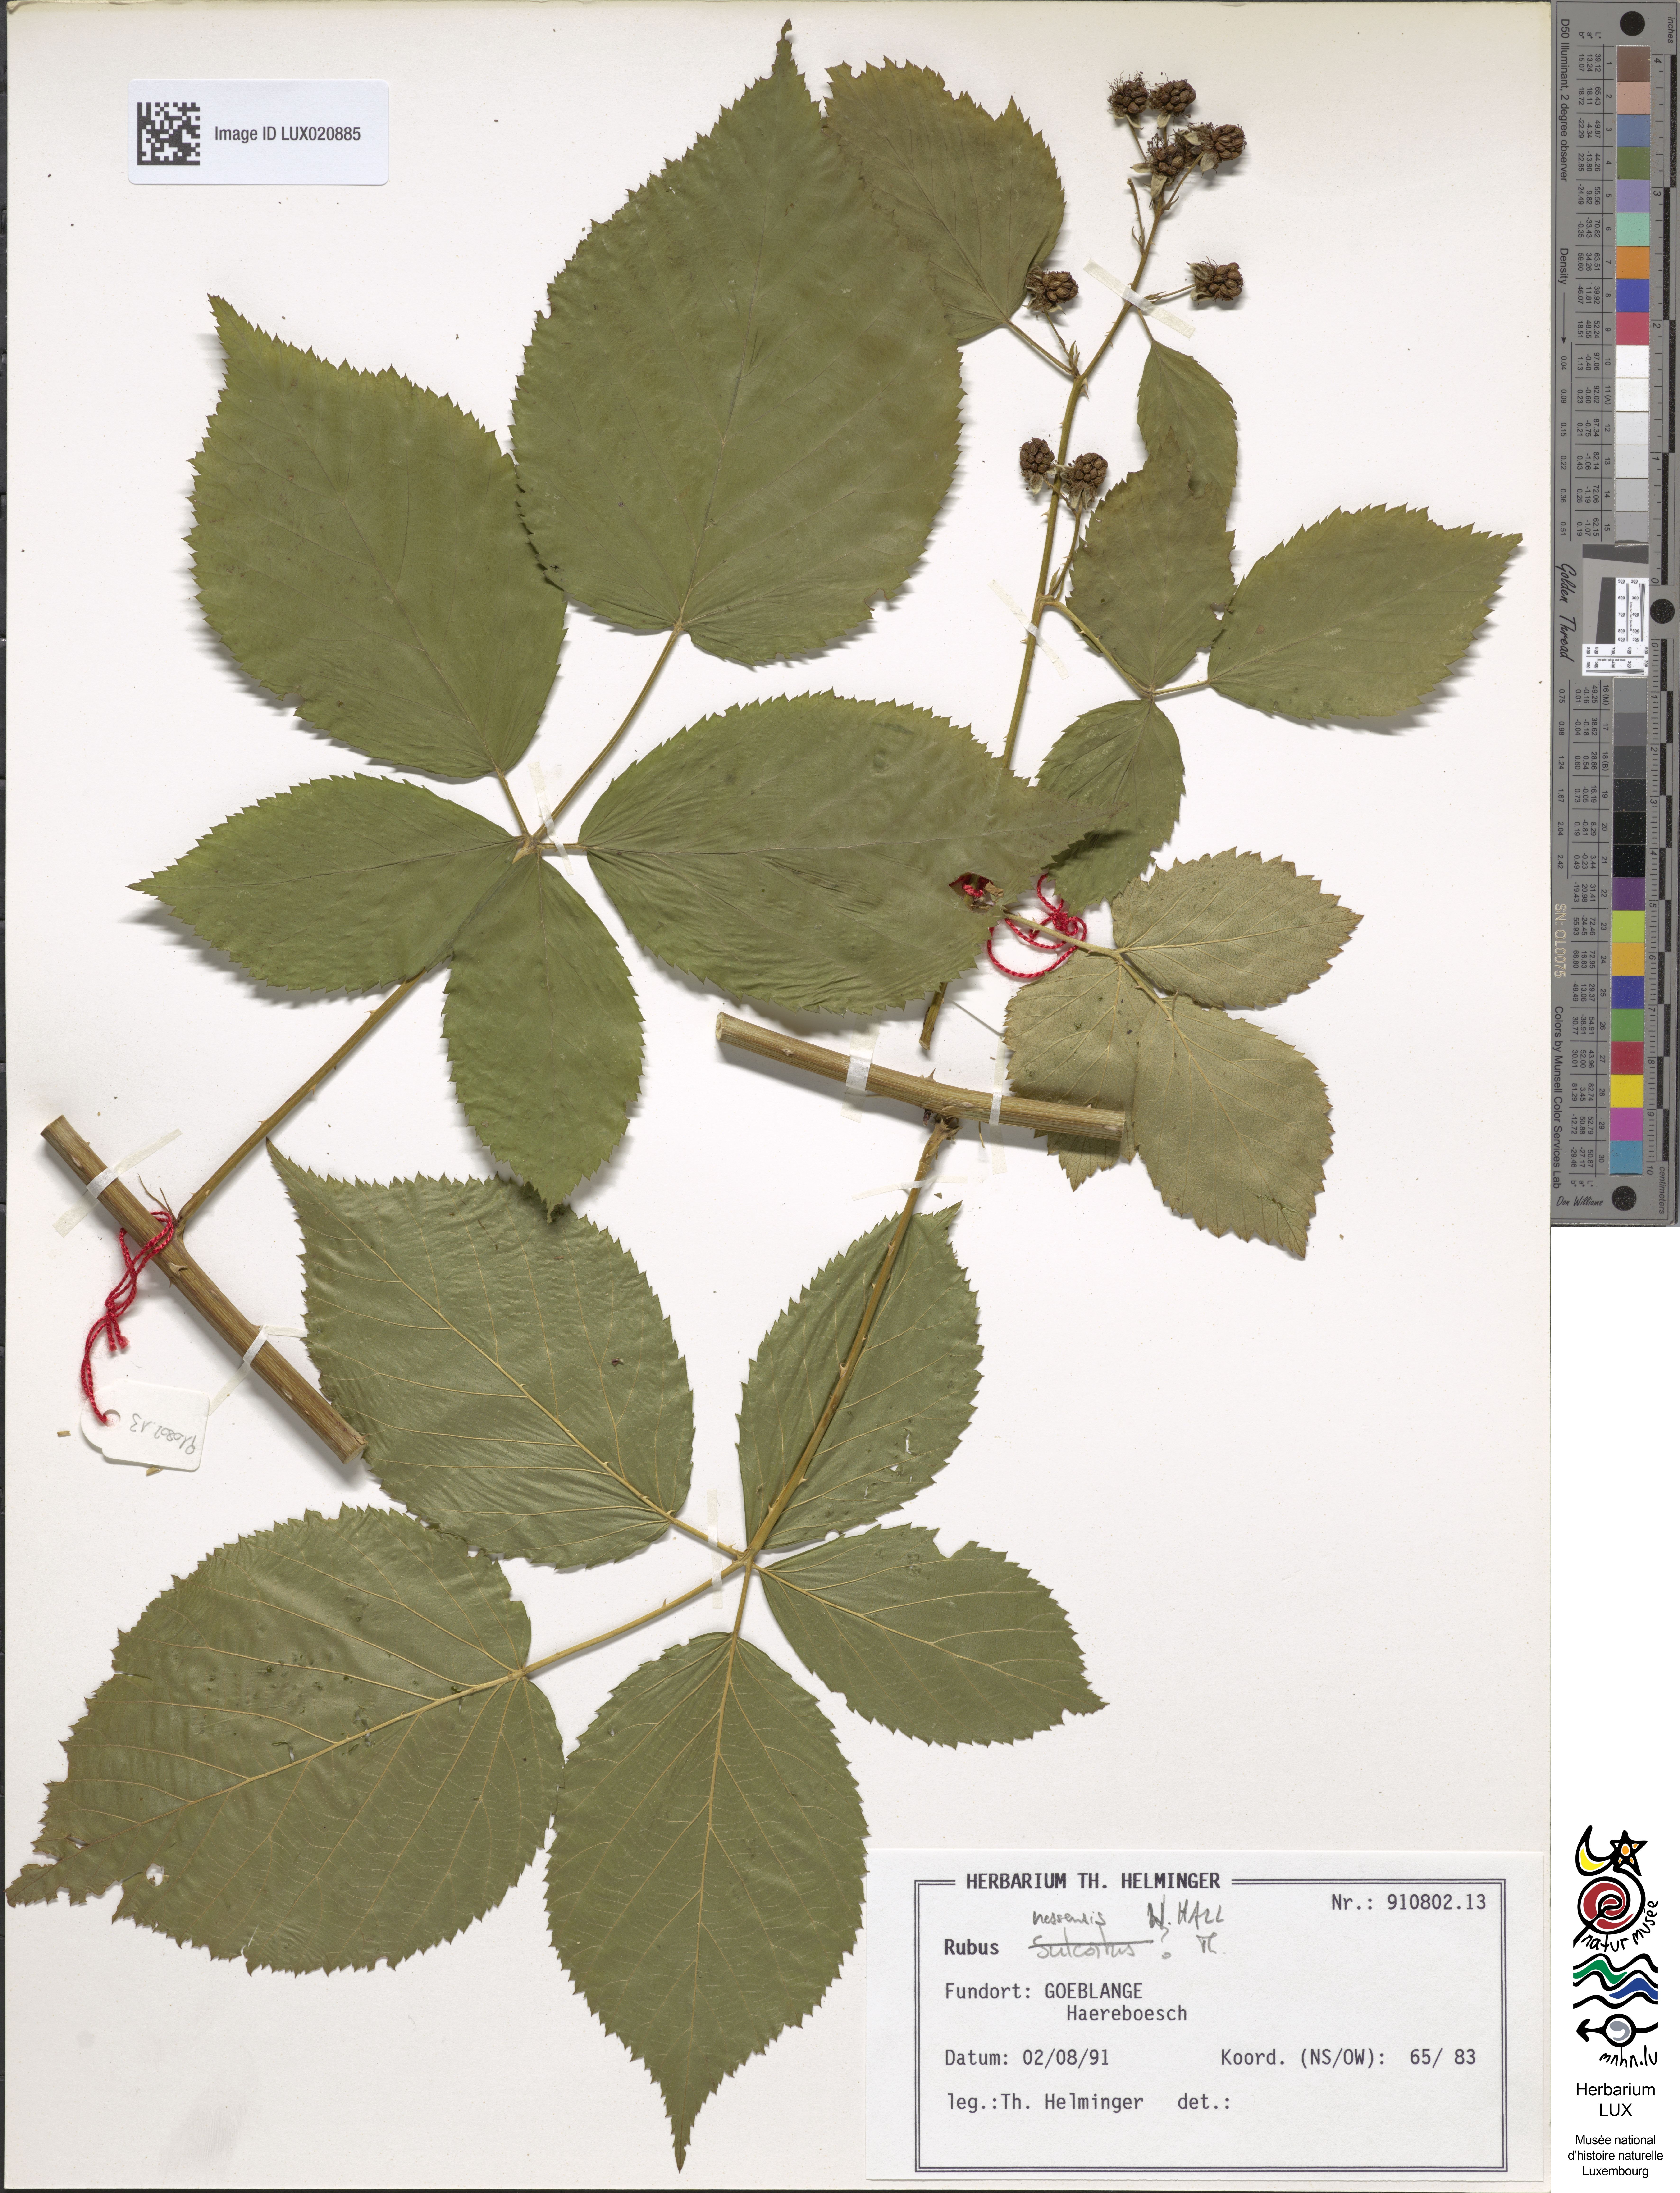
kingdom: Plantae
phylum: Tracheophyta
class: Magnoliopsida
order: Rosales
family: Rosaceae
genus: Rubus
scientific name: Rubus polonicus
